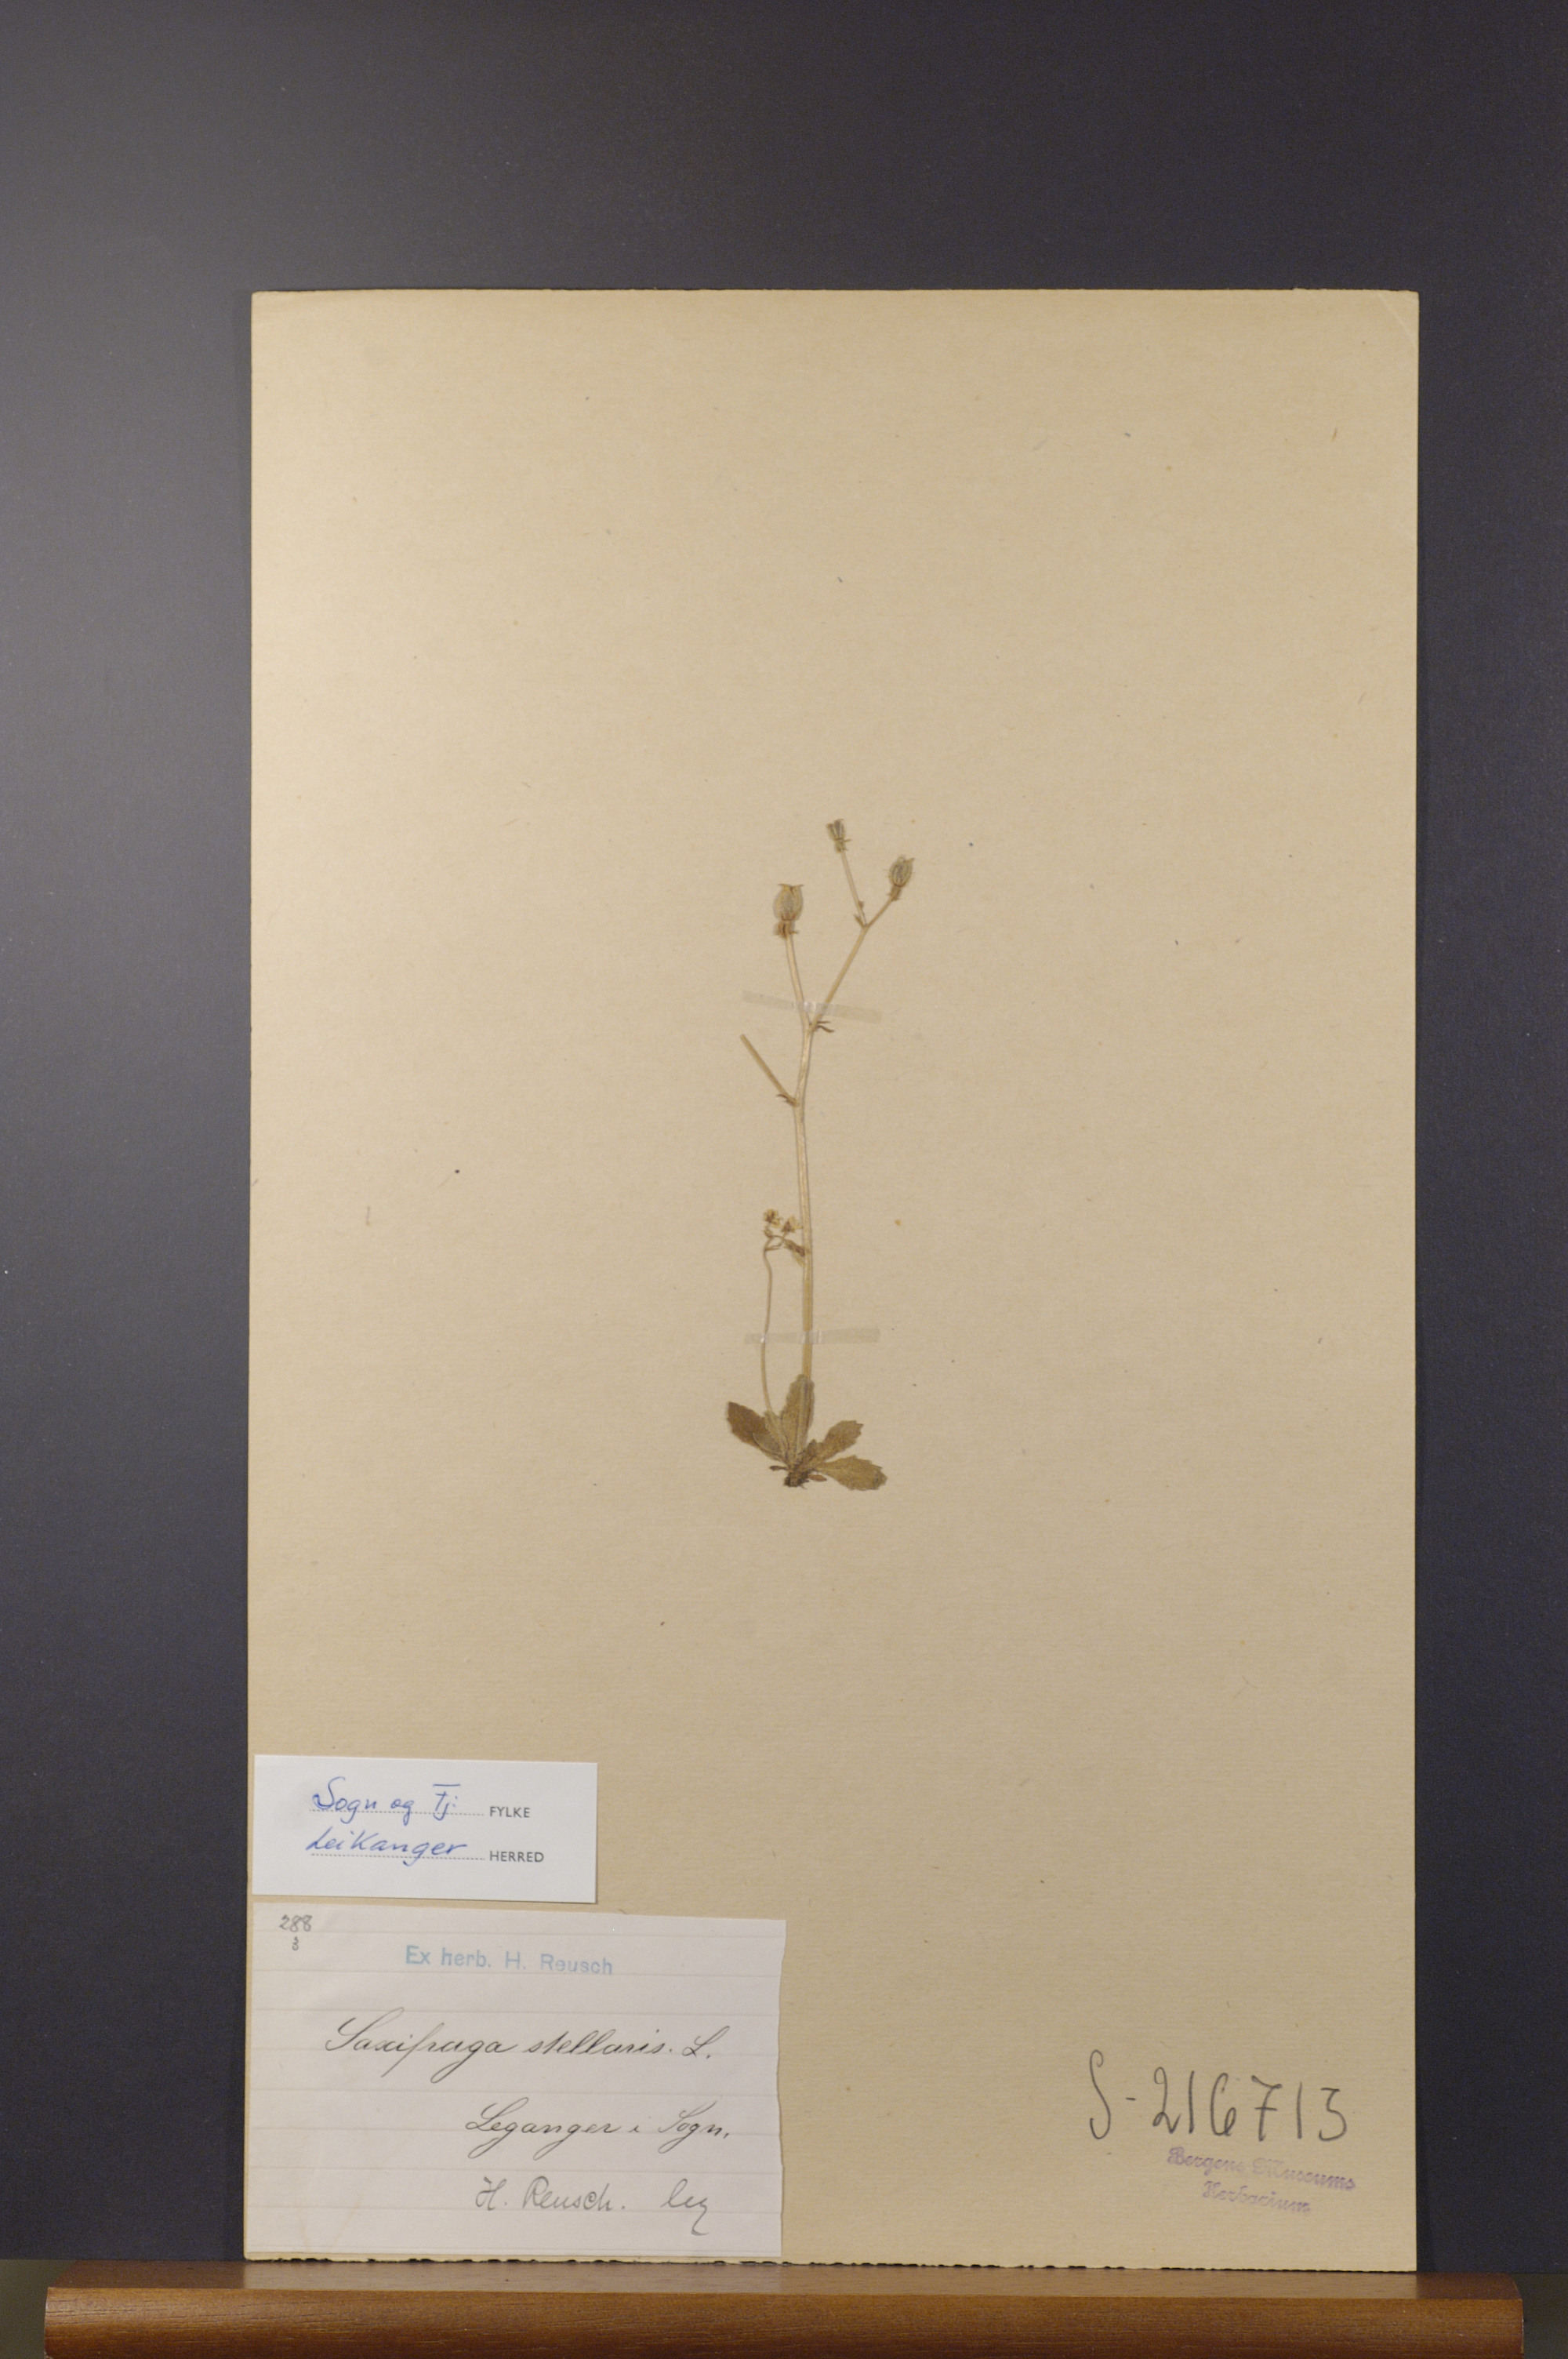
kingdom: Plantae
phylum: Tracheophyta
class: Magnoliopsida
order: Saxifragales
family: Saxifragaceae
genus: Micranthes
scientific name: Micranthes stellaris
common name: Starry saxifrage
